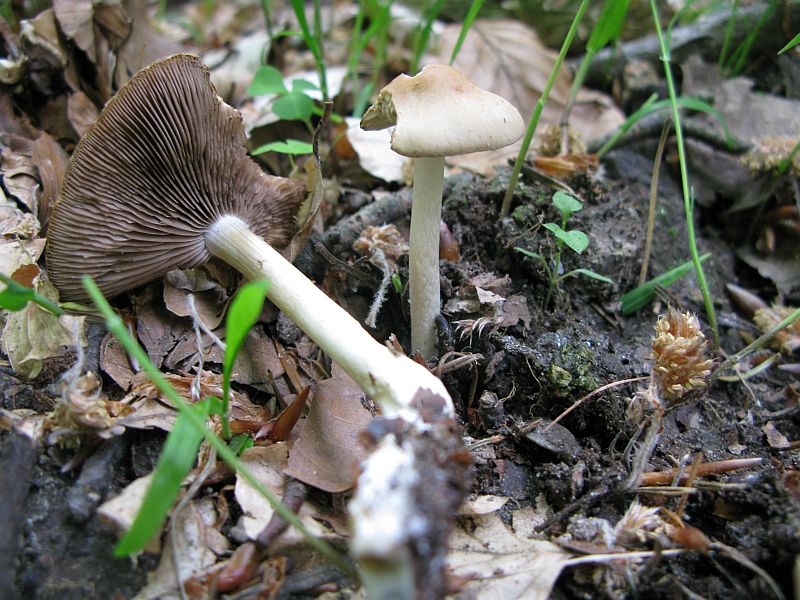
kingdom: Fungi
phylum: Basidiomycota
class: Agaricomycetes
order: Agaricales
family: Psathyrellaceae
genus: Psathyrella
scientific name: Psathyrella spadiceogrisea
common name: gråbrun mørkhat
